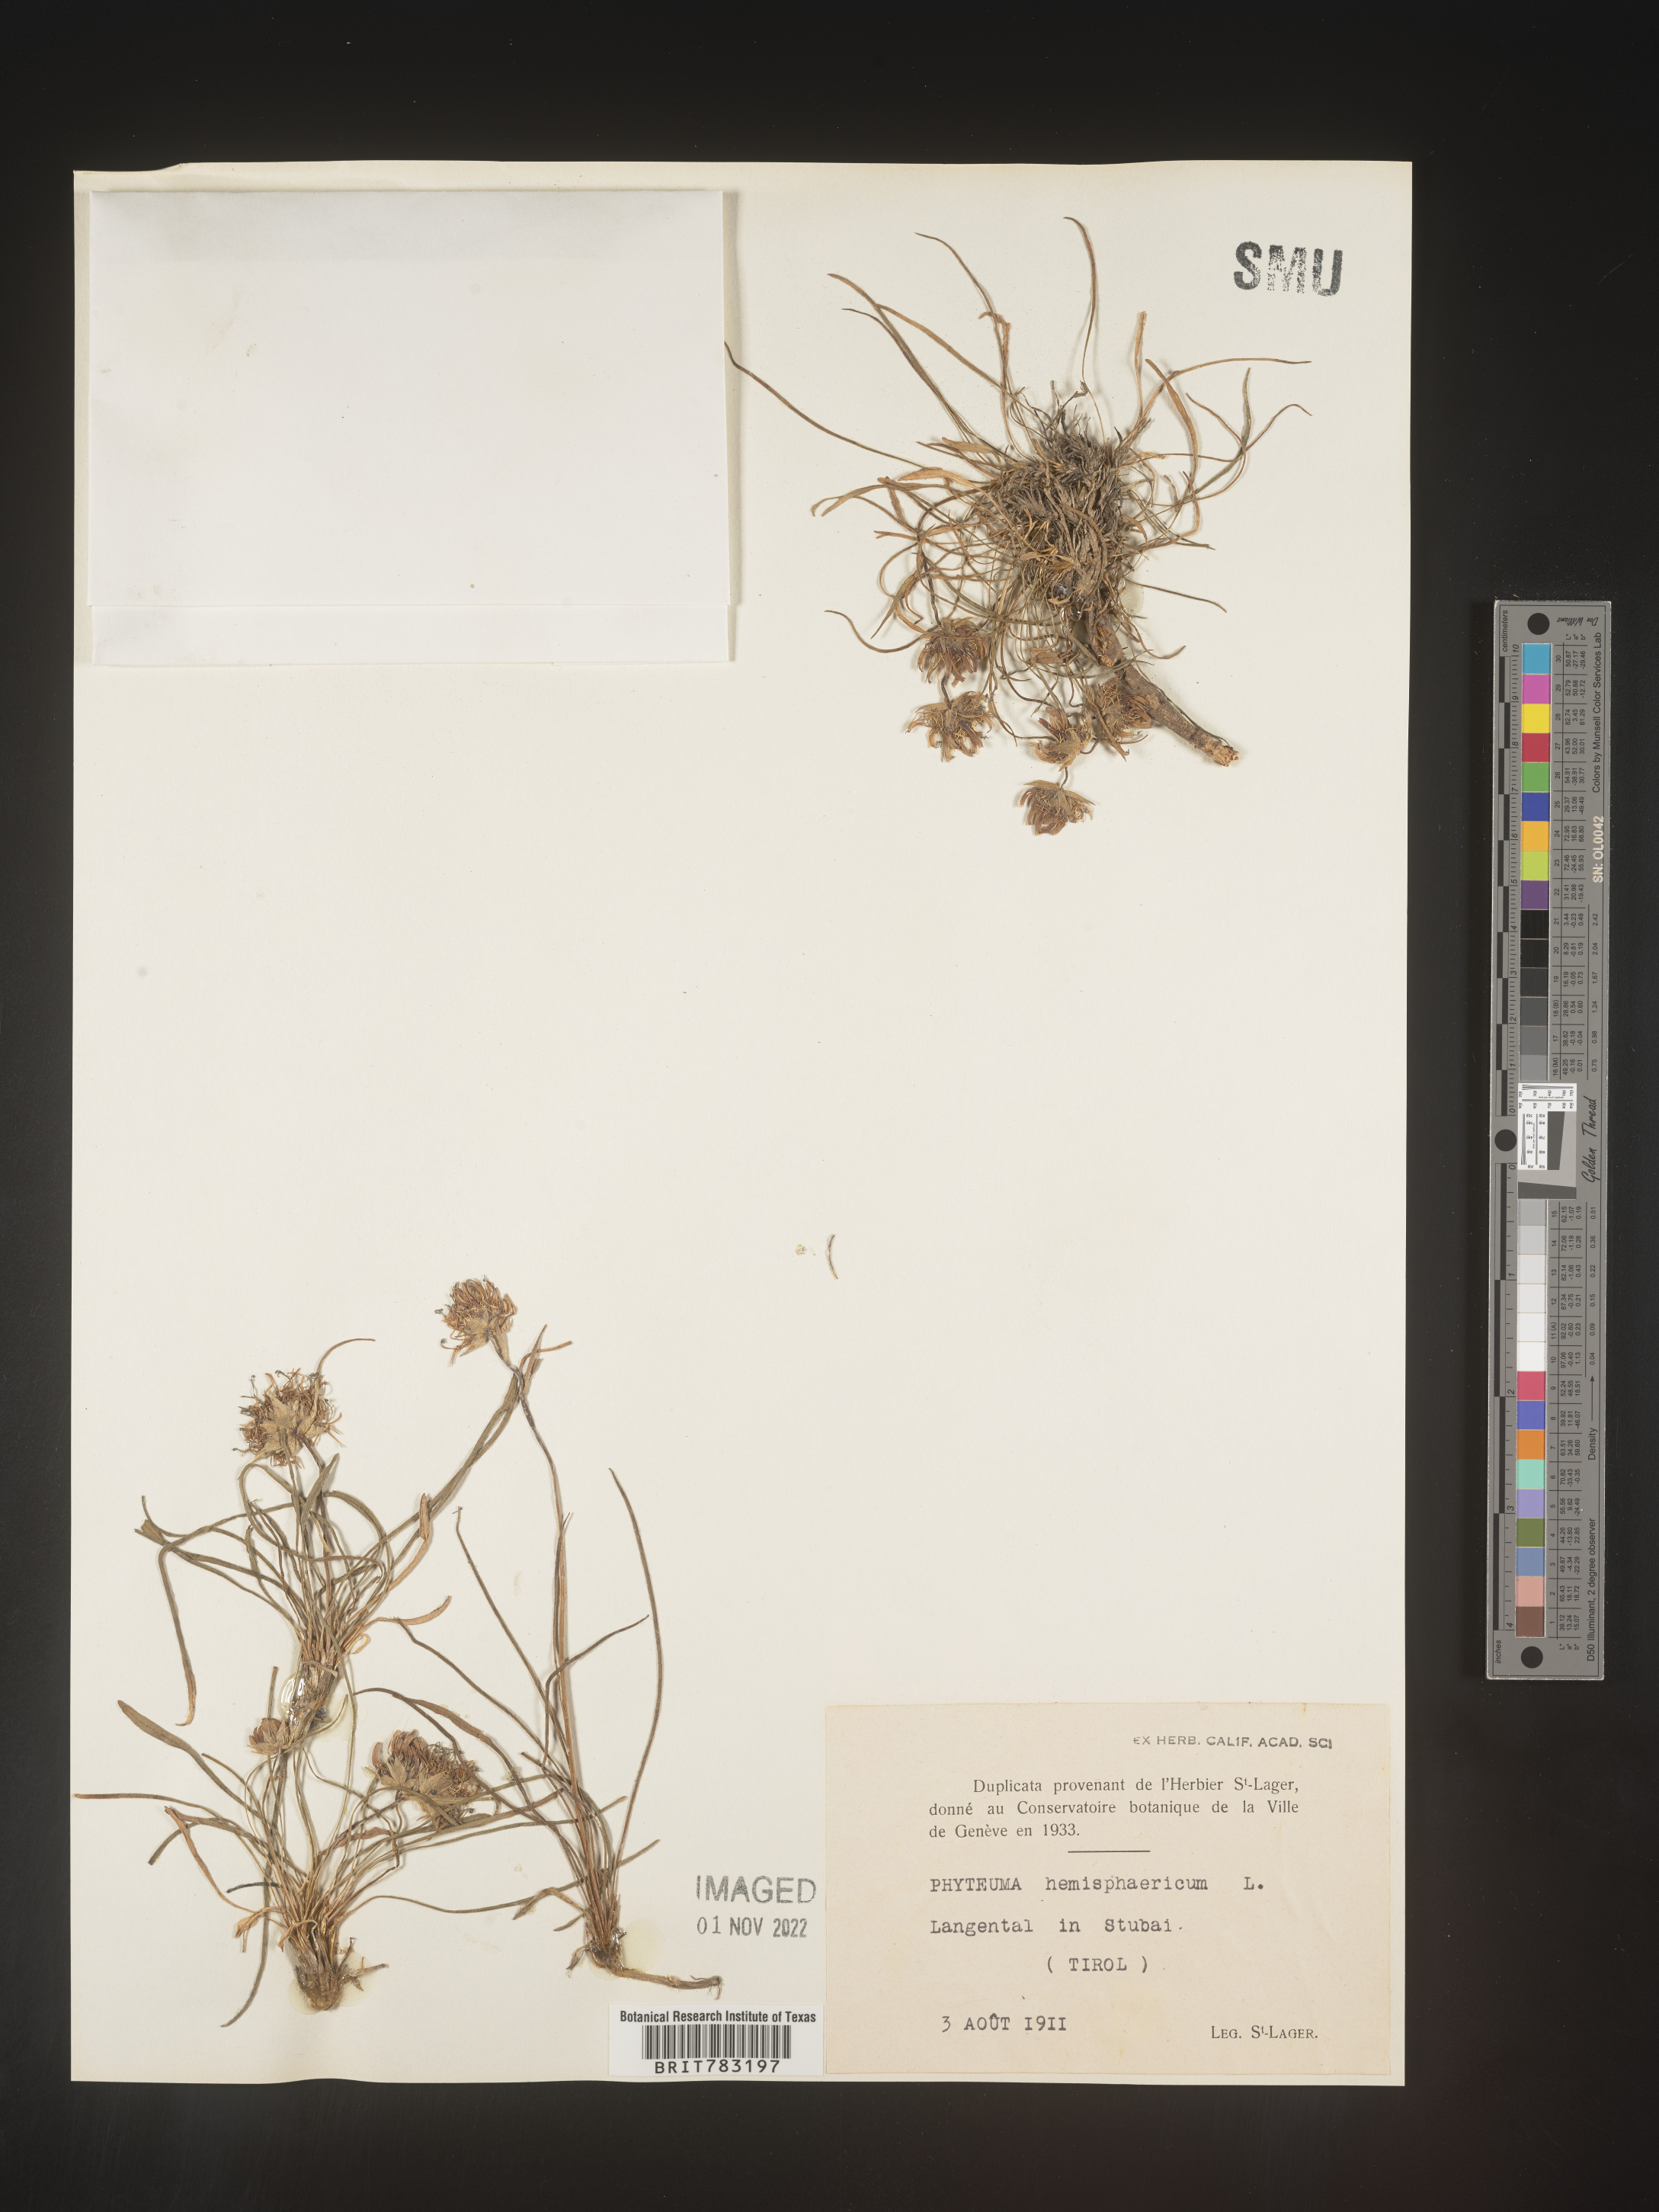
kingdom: Plantae
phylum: Tracheophyta
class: Magnoliopsida
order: Asterales
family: Campanulaceae
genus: Phyteuma
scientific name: Phyteuma
